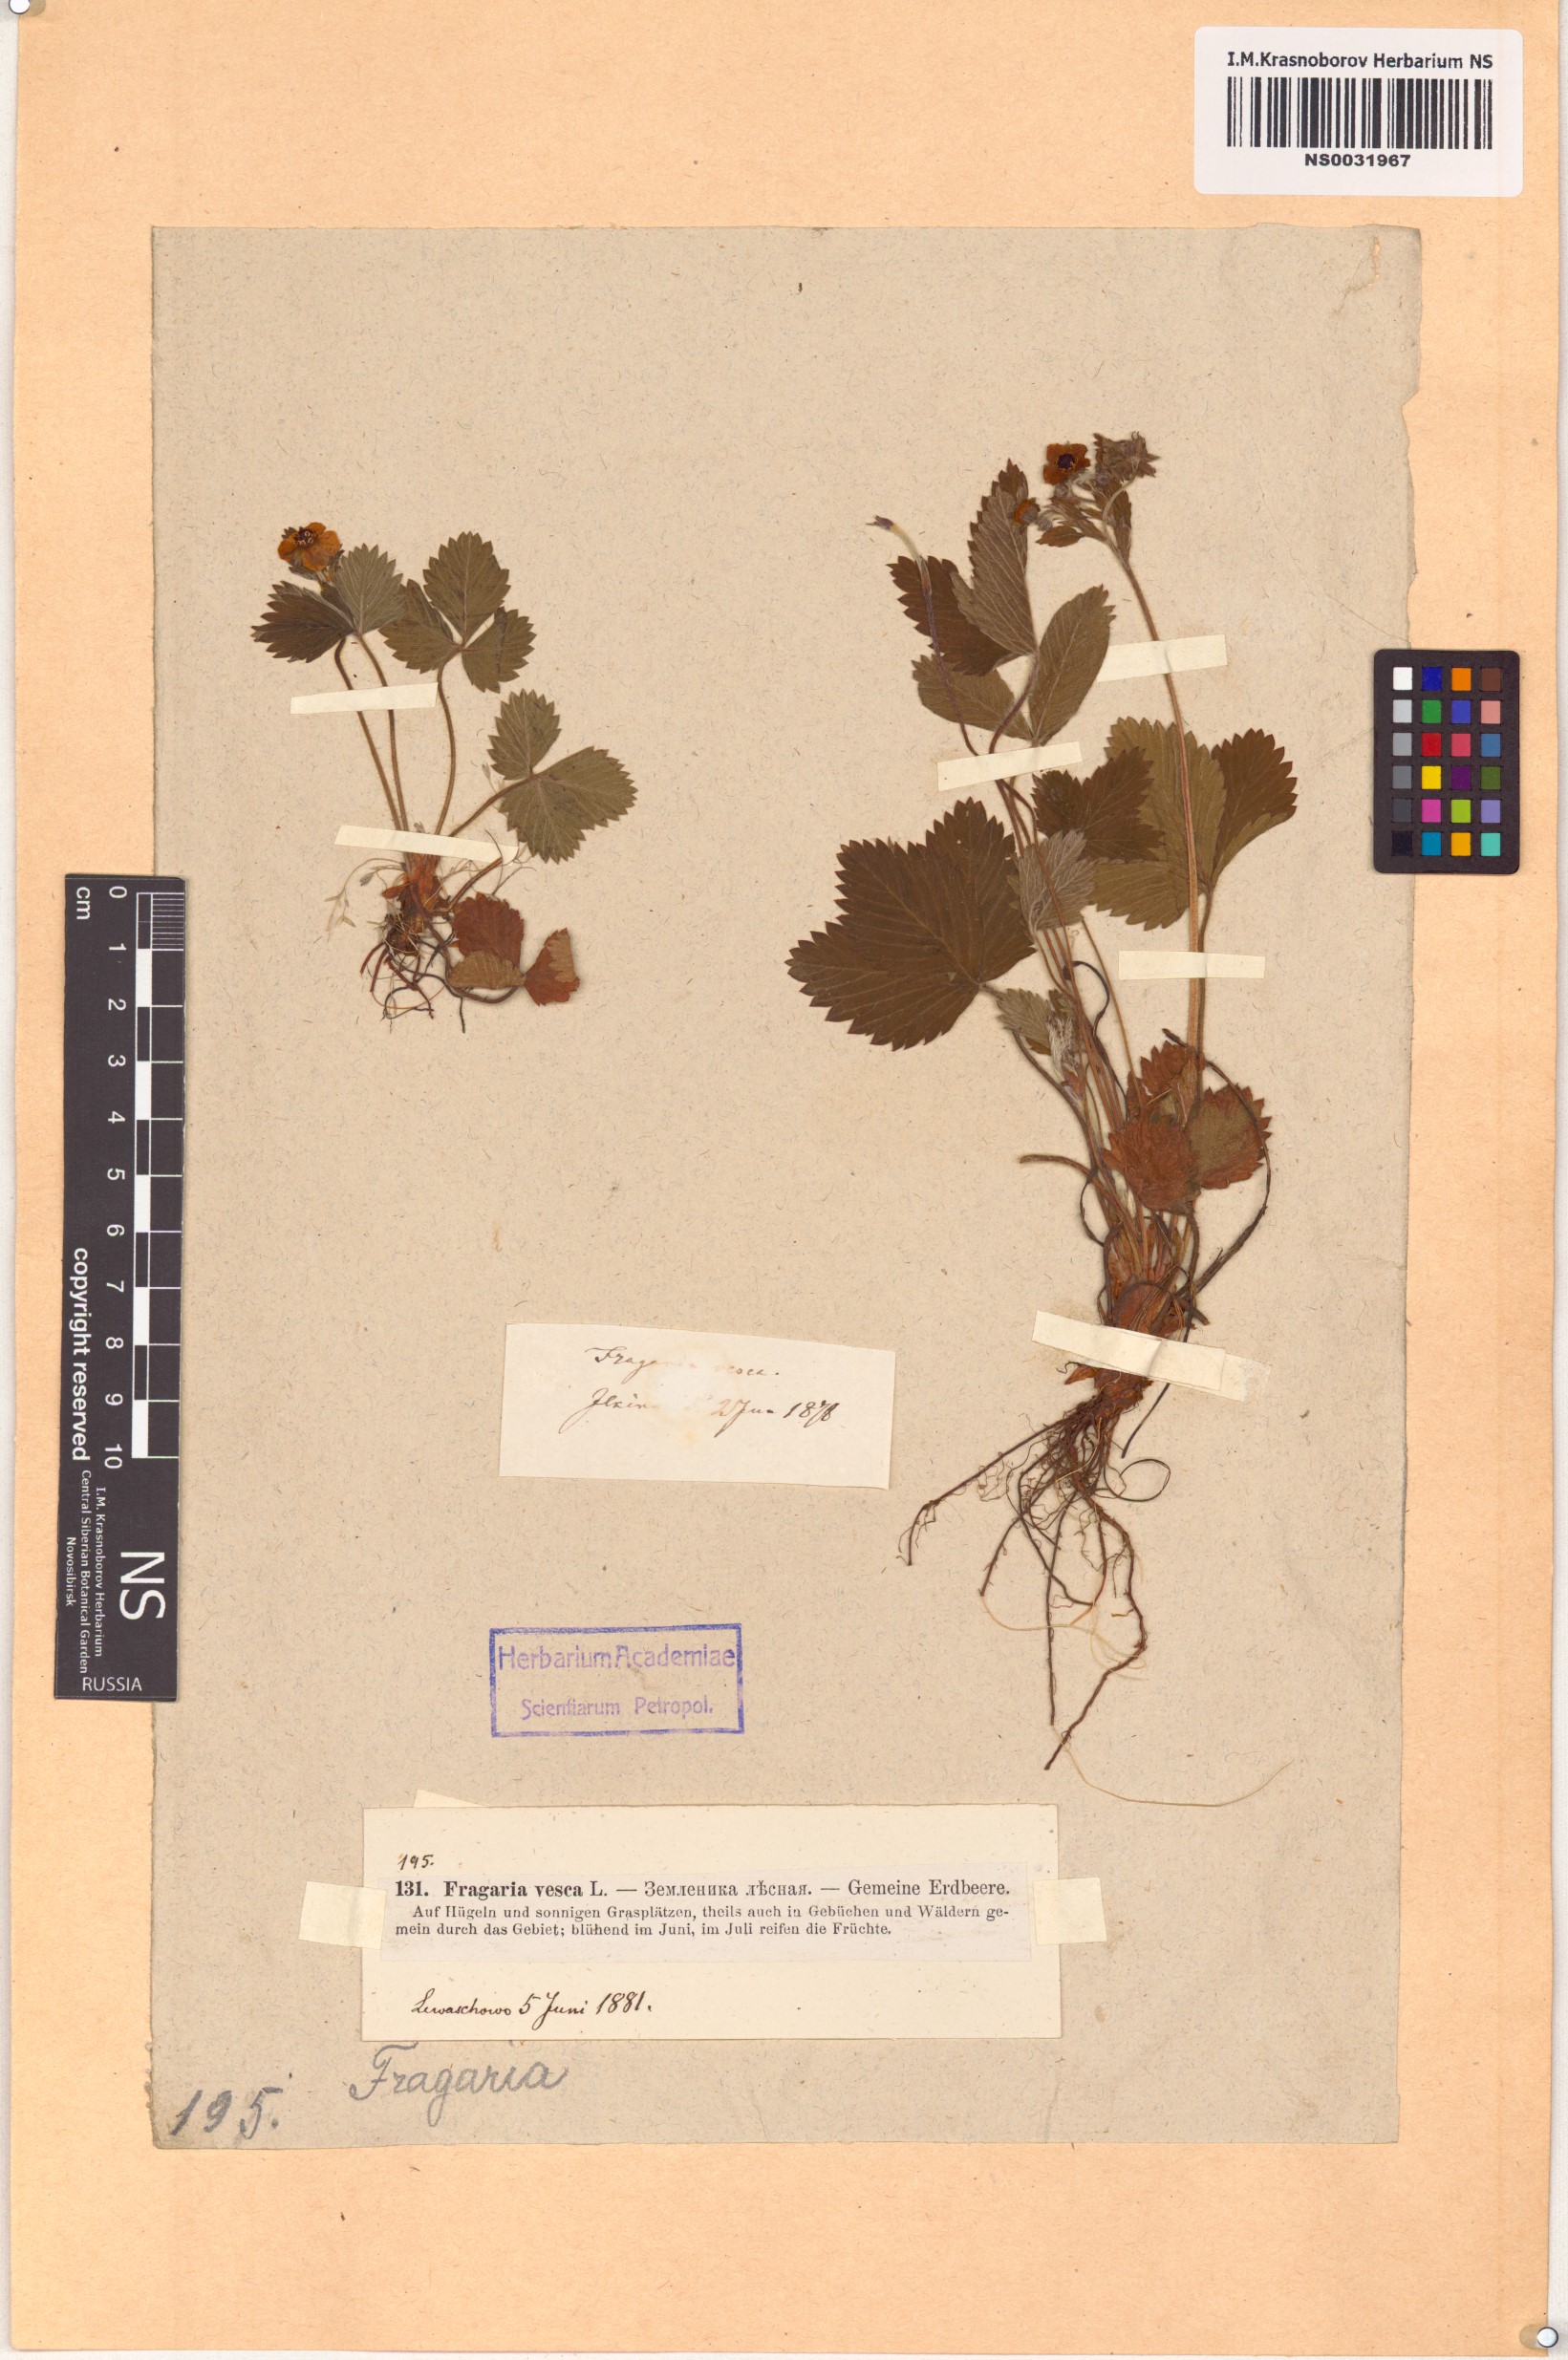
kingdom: Plantae
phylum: Tracheophyta
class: Magnoliopsida
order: Rosales
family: Rosaceae
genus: Fragaria
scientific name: Fragaria vesca
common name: Wild strawberry
